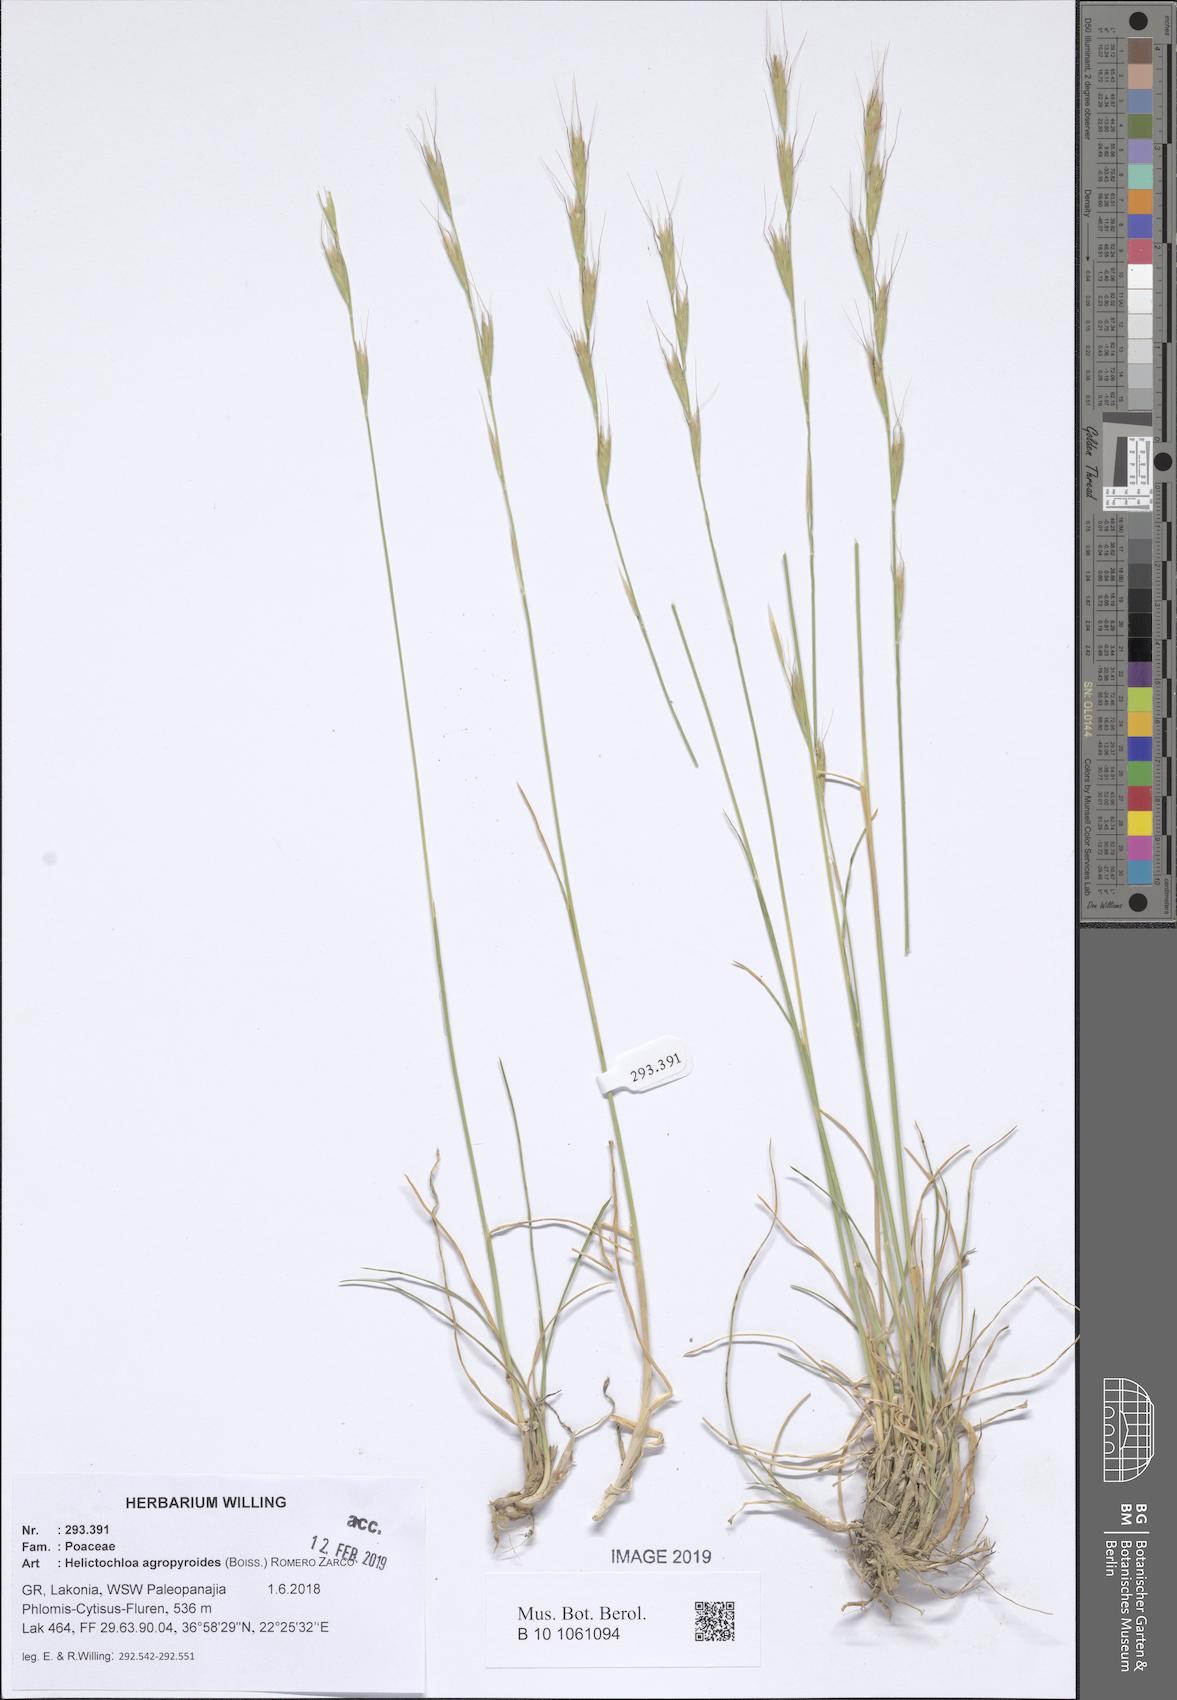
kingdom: Plantae
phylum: Tracheophyta
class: Liliopsida
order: Poales
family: Poaceae
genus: Helictochloa
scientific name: Helictochloa agropyroides
